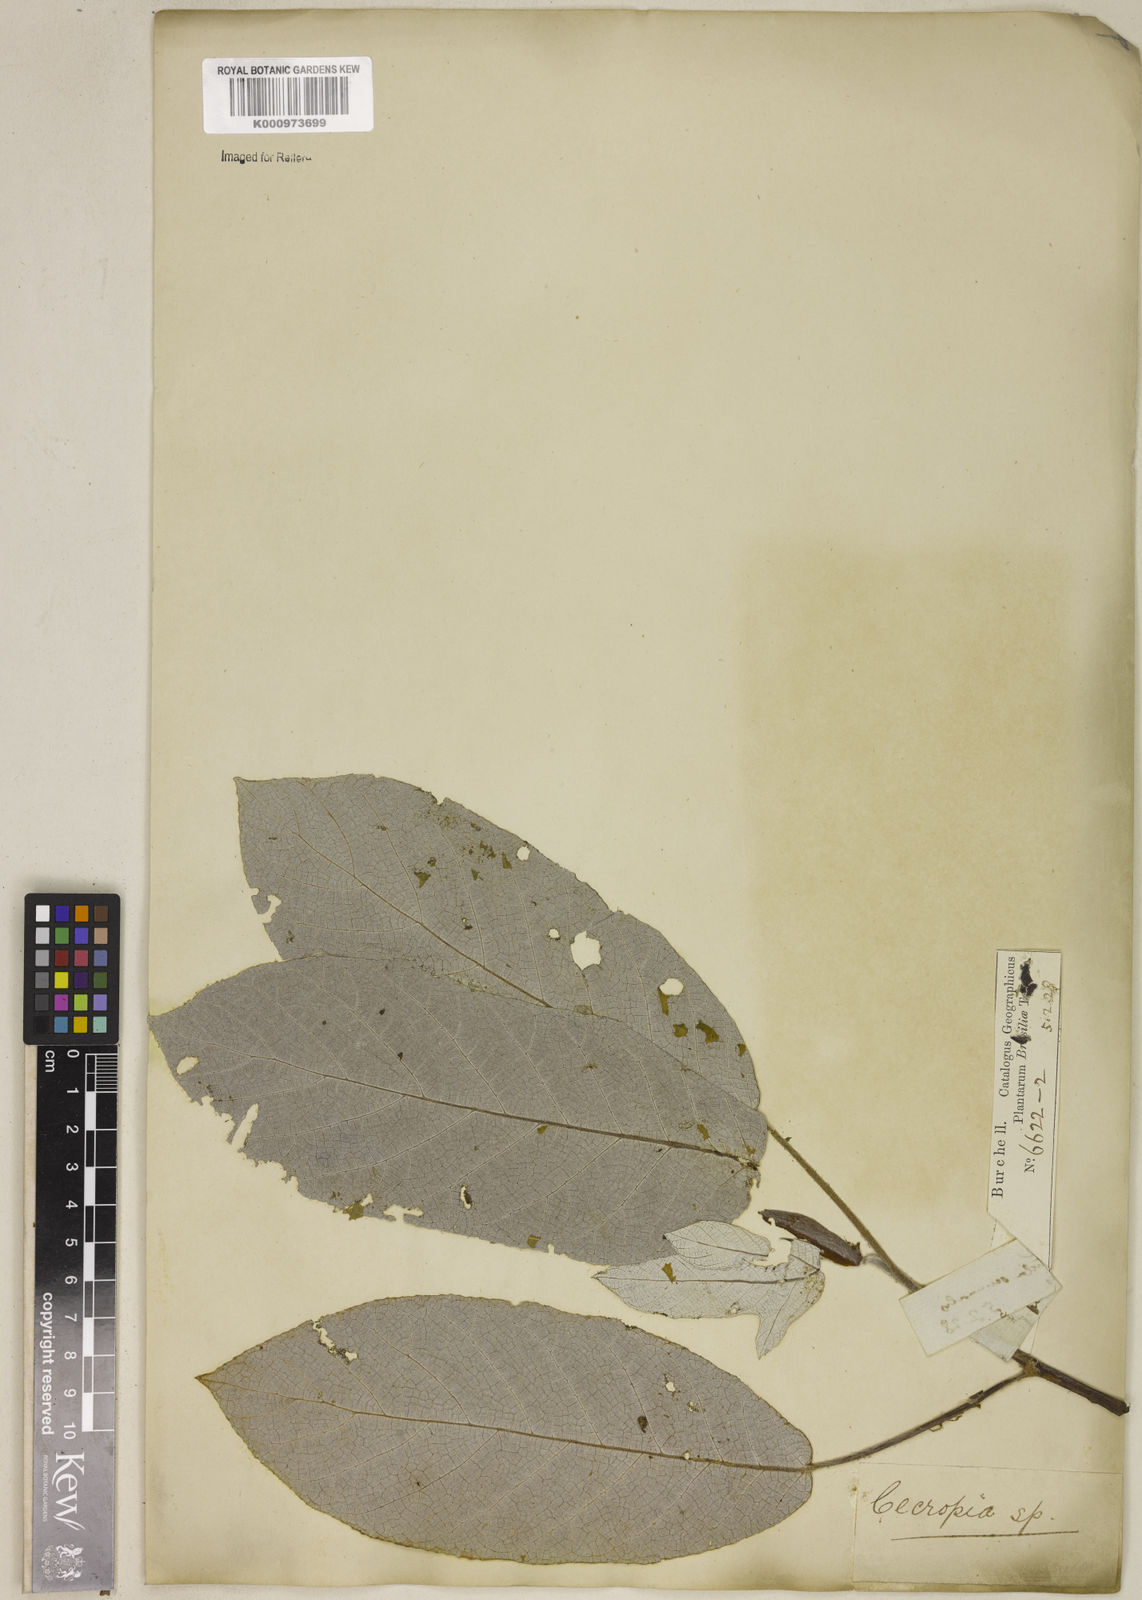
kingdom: Plantae
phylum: Tracheophyta
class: Magnoliopsida
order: Rosales
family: Urticaceae
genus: Cecropia
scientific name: Cecropia
